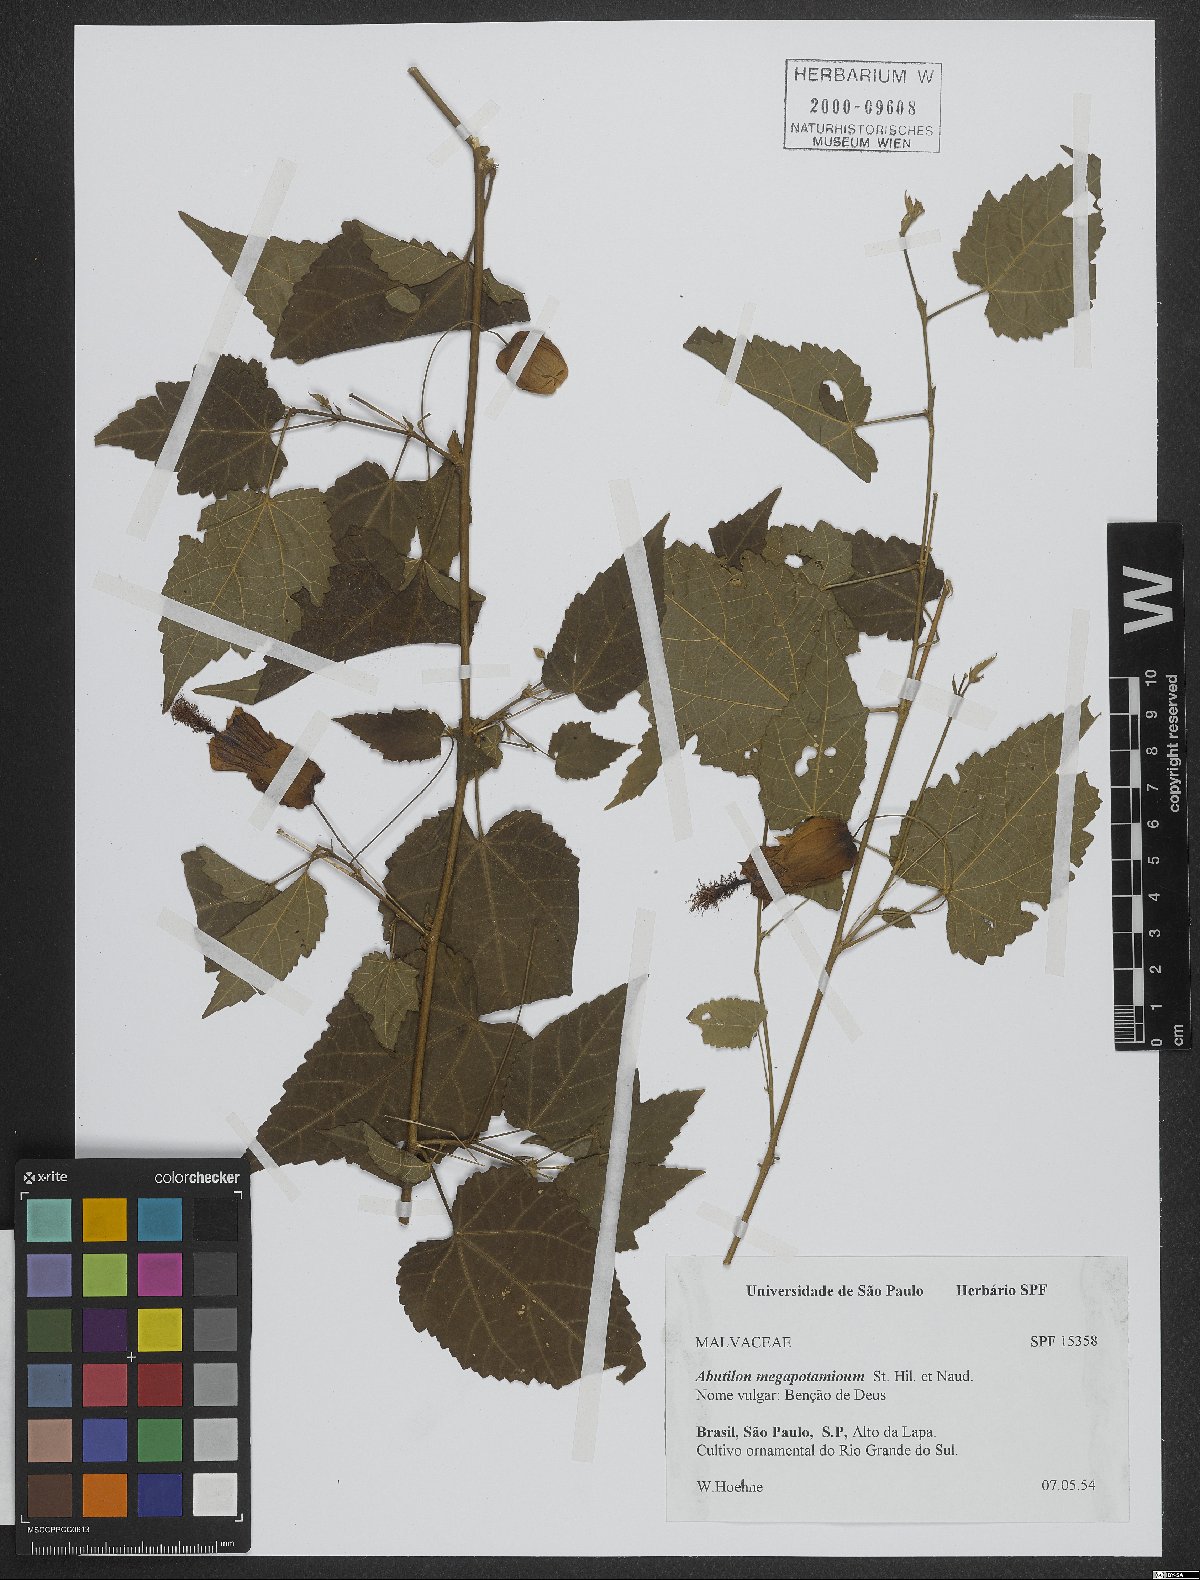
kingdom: Plantae
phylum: Tracheophyta
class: Magnoliopsida
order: Malvales
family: Malvaceae
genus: Callianthe
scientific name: Callianthe megapotamica
